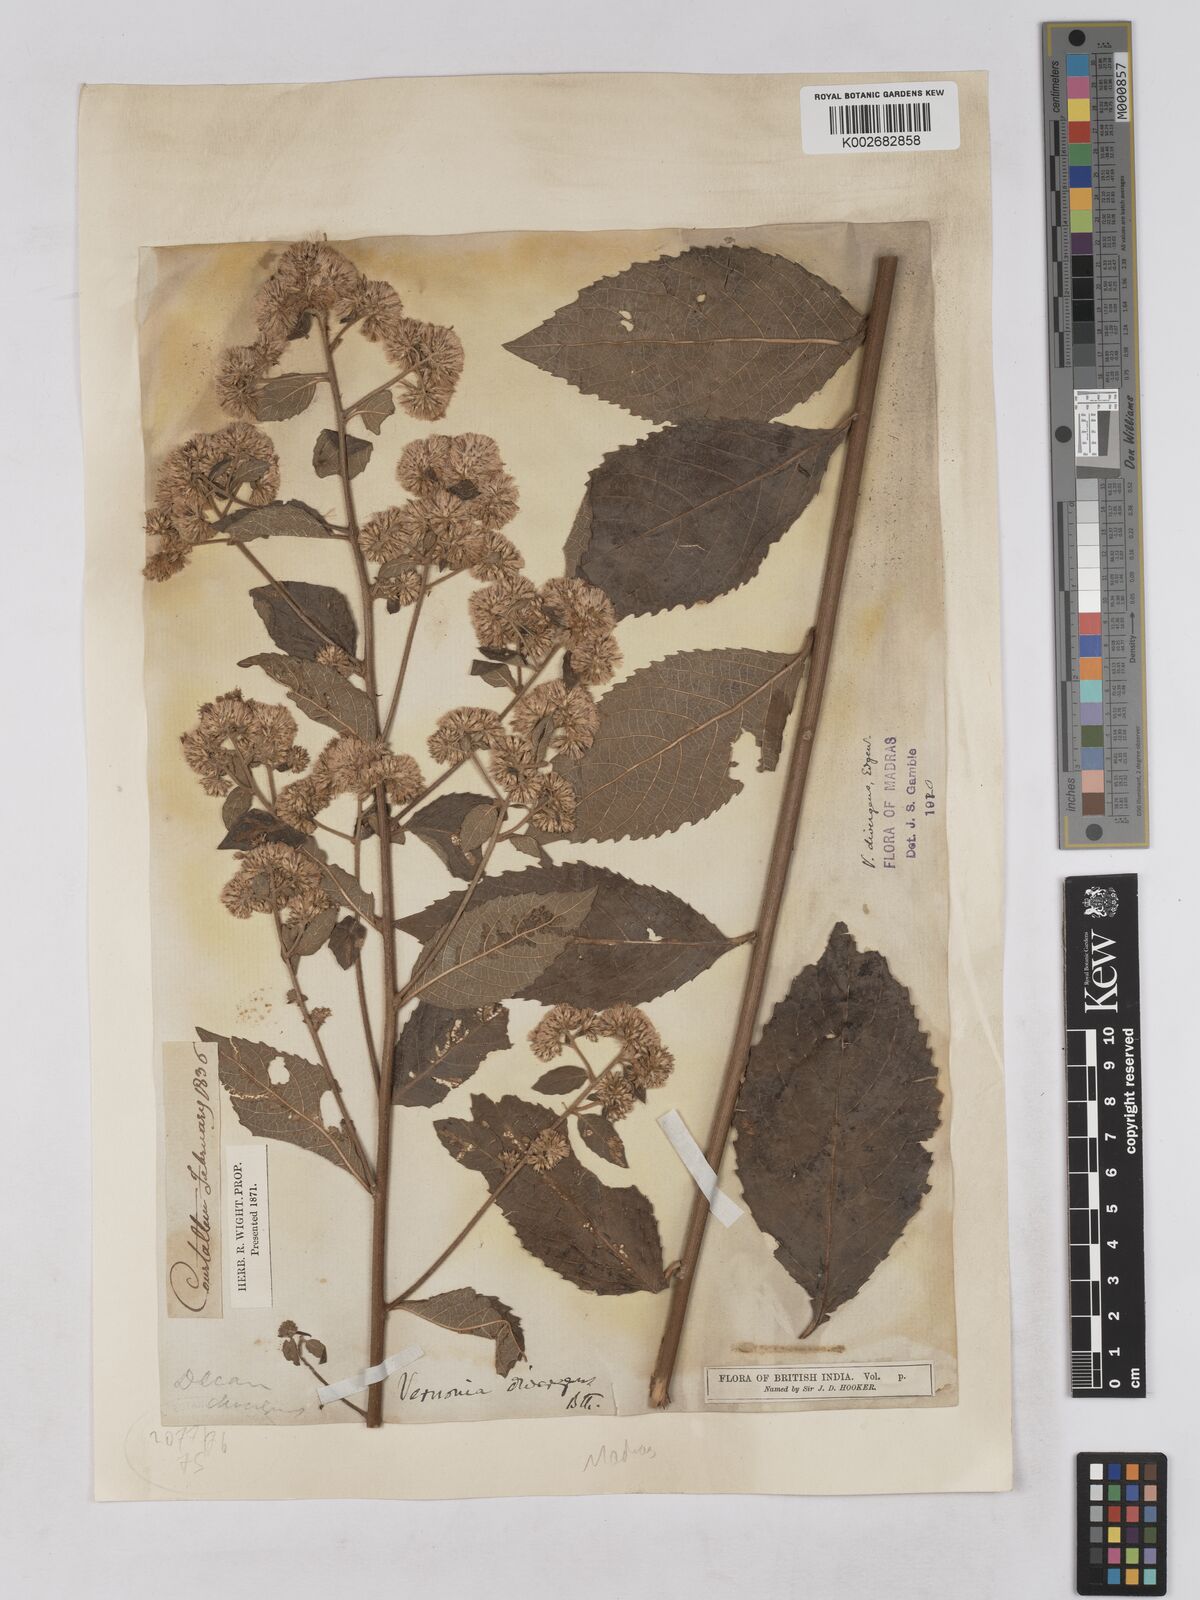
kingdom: Plantae
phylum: Tracheophyta
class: Magnoliopsida
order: Asterales
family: Asteraceae
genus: Acilepis
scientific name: Acilepis divergens
